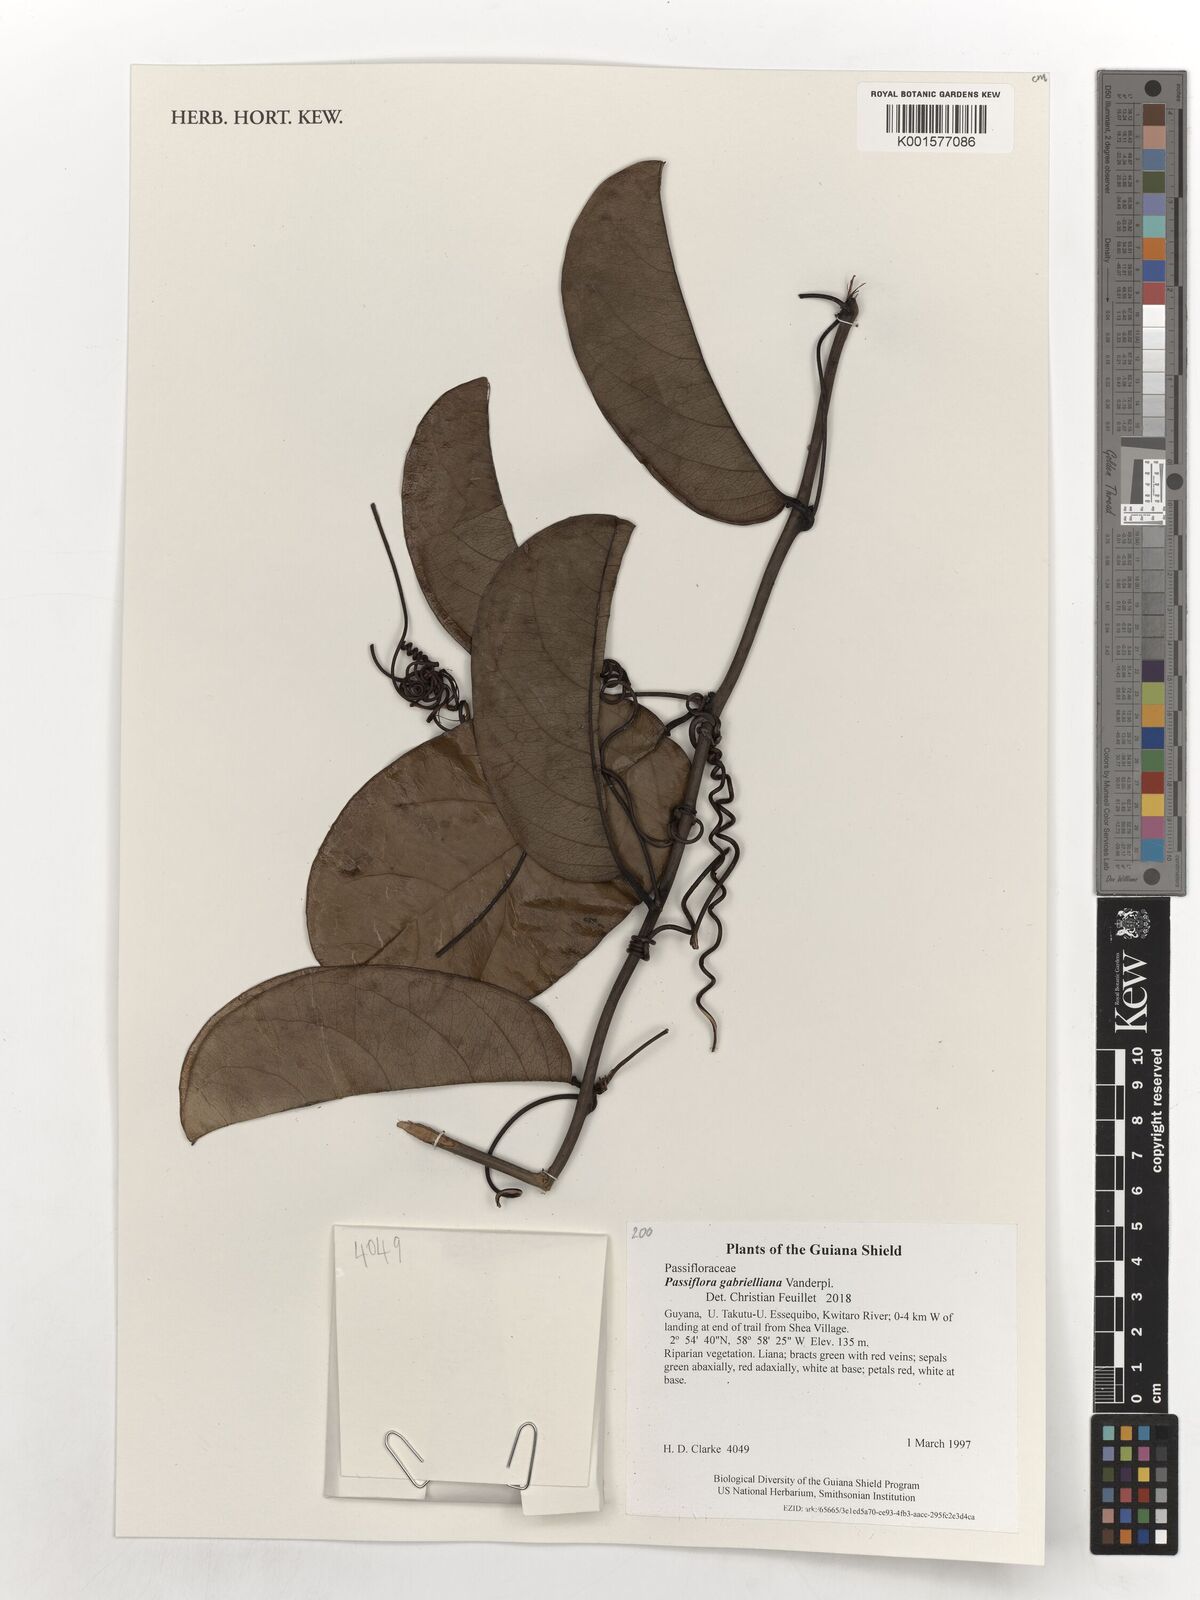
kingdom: Plantae
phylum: Tracheophyta
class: Magnoliopsida
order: Malpighiales
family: Passifloraceae
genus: Passiflora
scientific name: Passiflora gabrielliana
